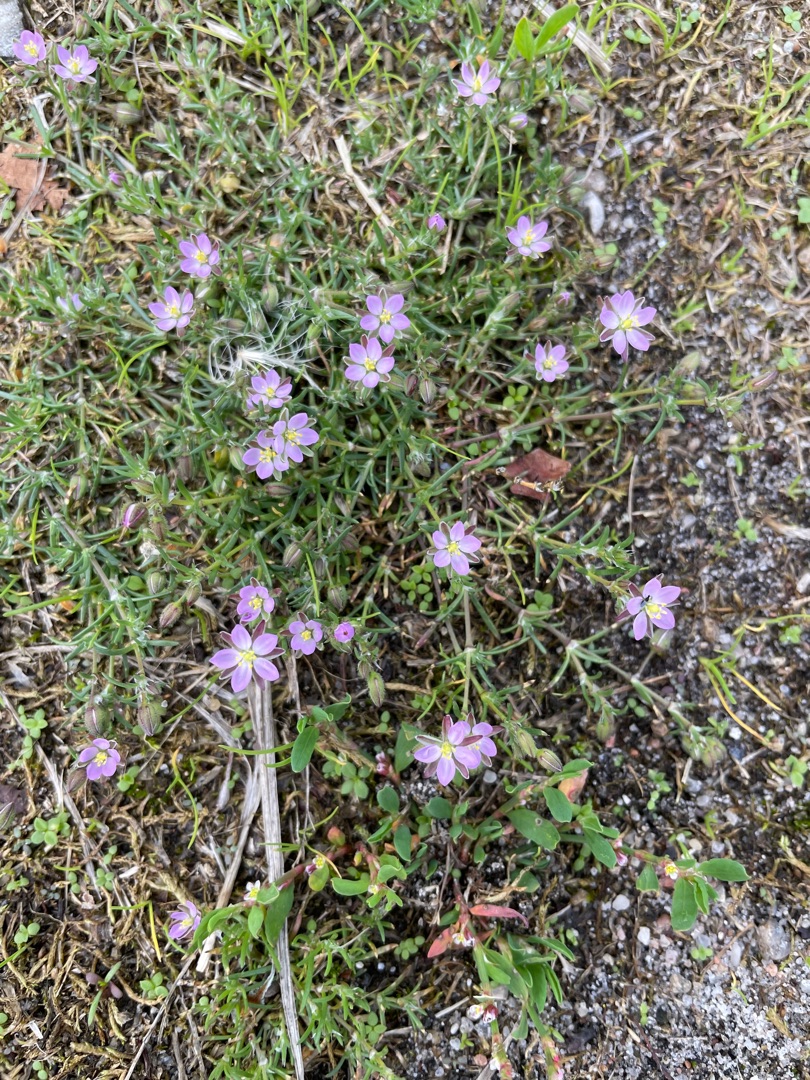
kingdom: Plantae
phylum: Tracheophyta
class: Magnoliopsida
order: Caryophyllales
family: Caryophyllaceae
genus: Spergularia
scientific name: Spergularia marina
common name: Kødet hindeknæ
